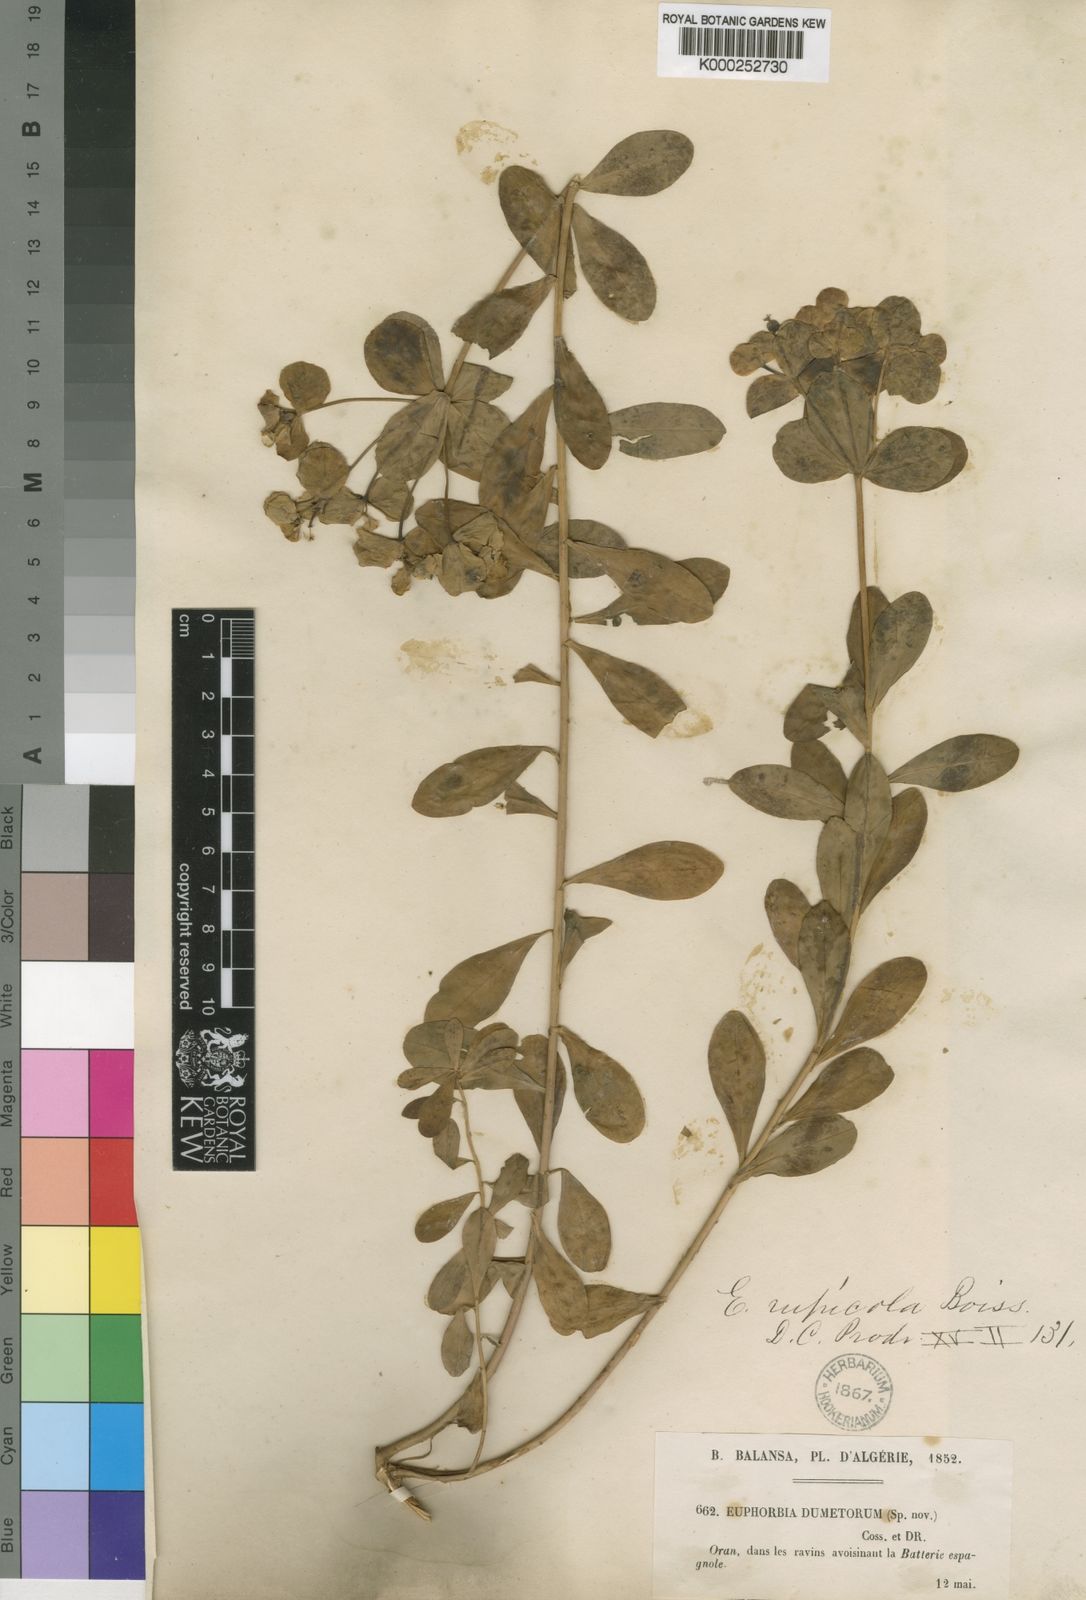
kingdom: Plantae
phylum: Tracheophyta
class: Magnoliopsida
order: Malpighiales
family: Euphorbiaceae
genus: Euphorbia
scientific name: Euphorbia squamigera
